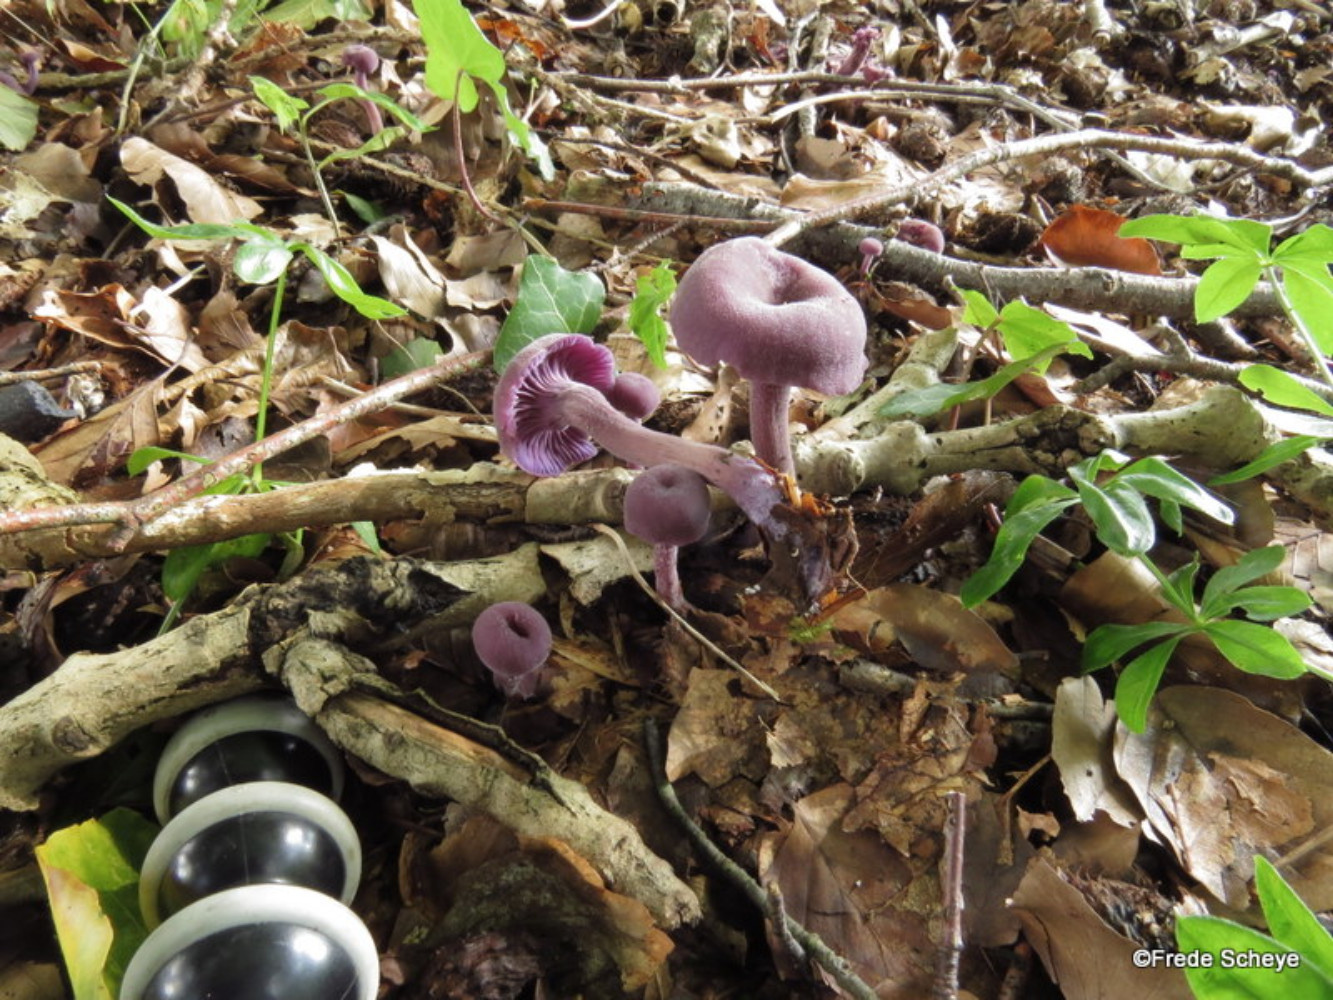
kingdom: Fungi
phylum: Basidiomycota
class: Agaricomycetes
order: Agaricales
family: Hydnangiaceae
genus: Laccaria
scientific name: Laccaria amethystina
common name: violet ametysthat
